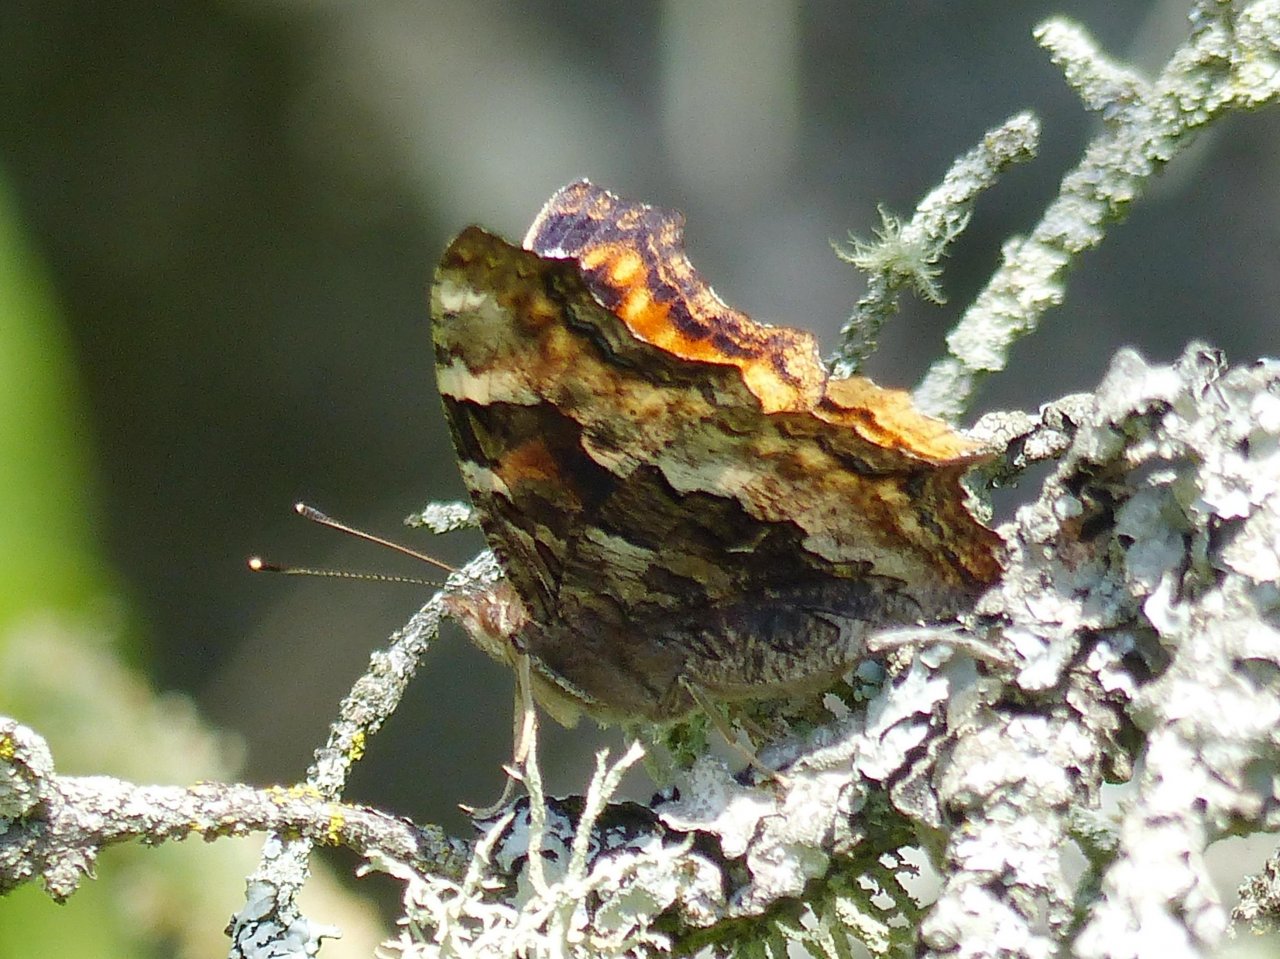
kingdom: Animalia
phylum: Arthropoda
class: Insecta
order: Lepidoptera
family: Nymphalidae
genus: Polygonia
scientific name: Polygonia vaualbum
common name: Compton Tortoiseshell
